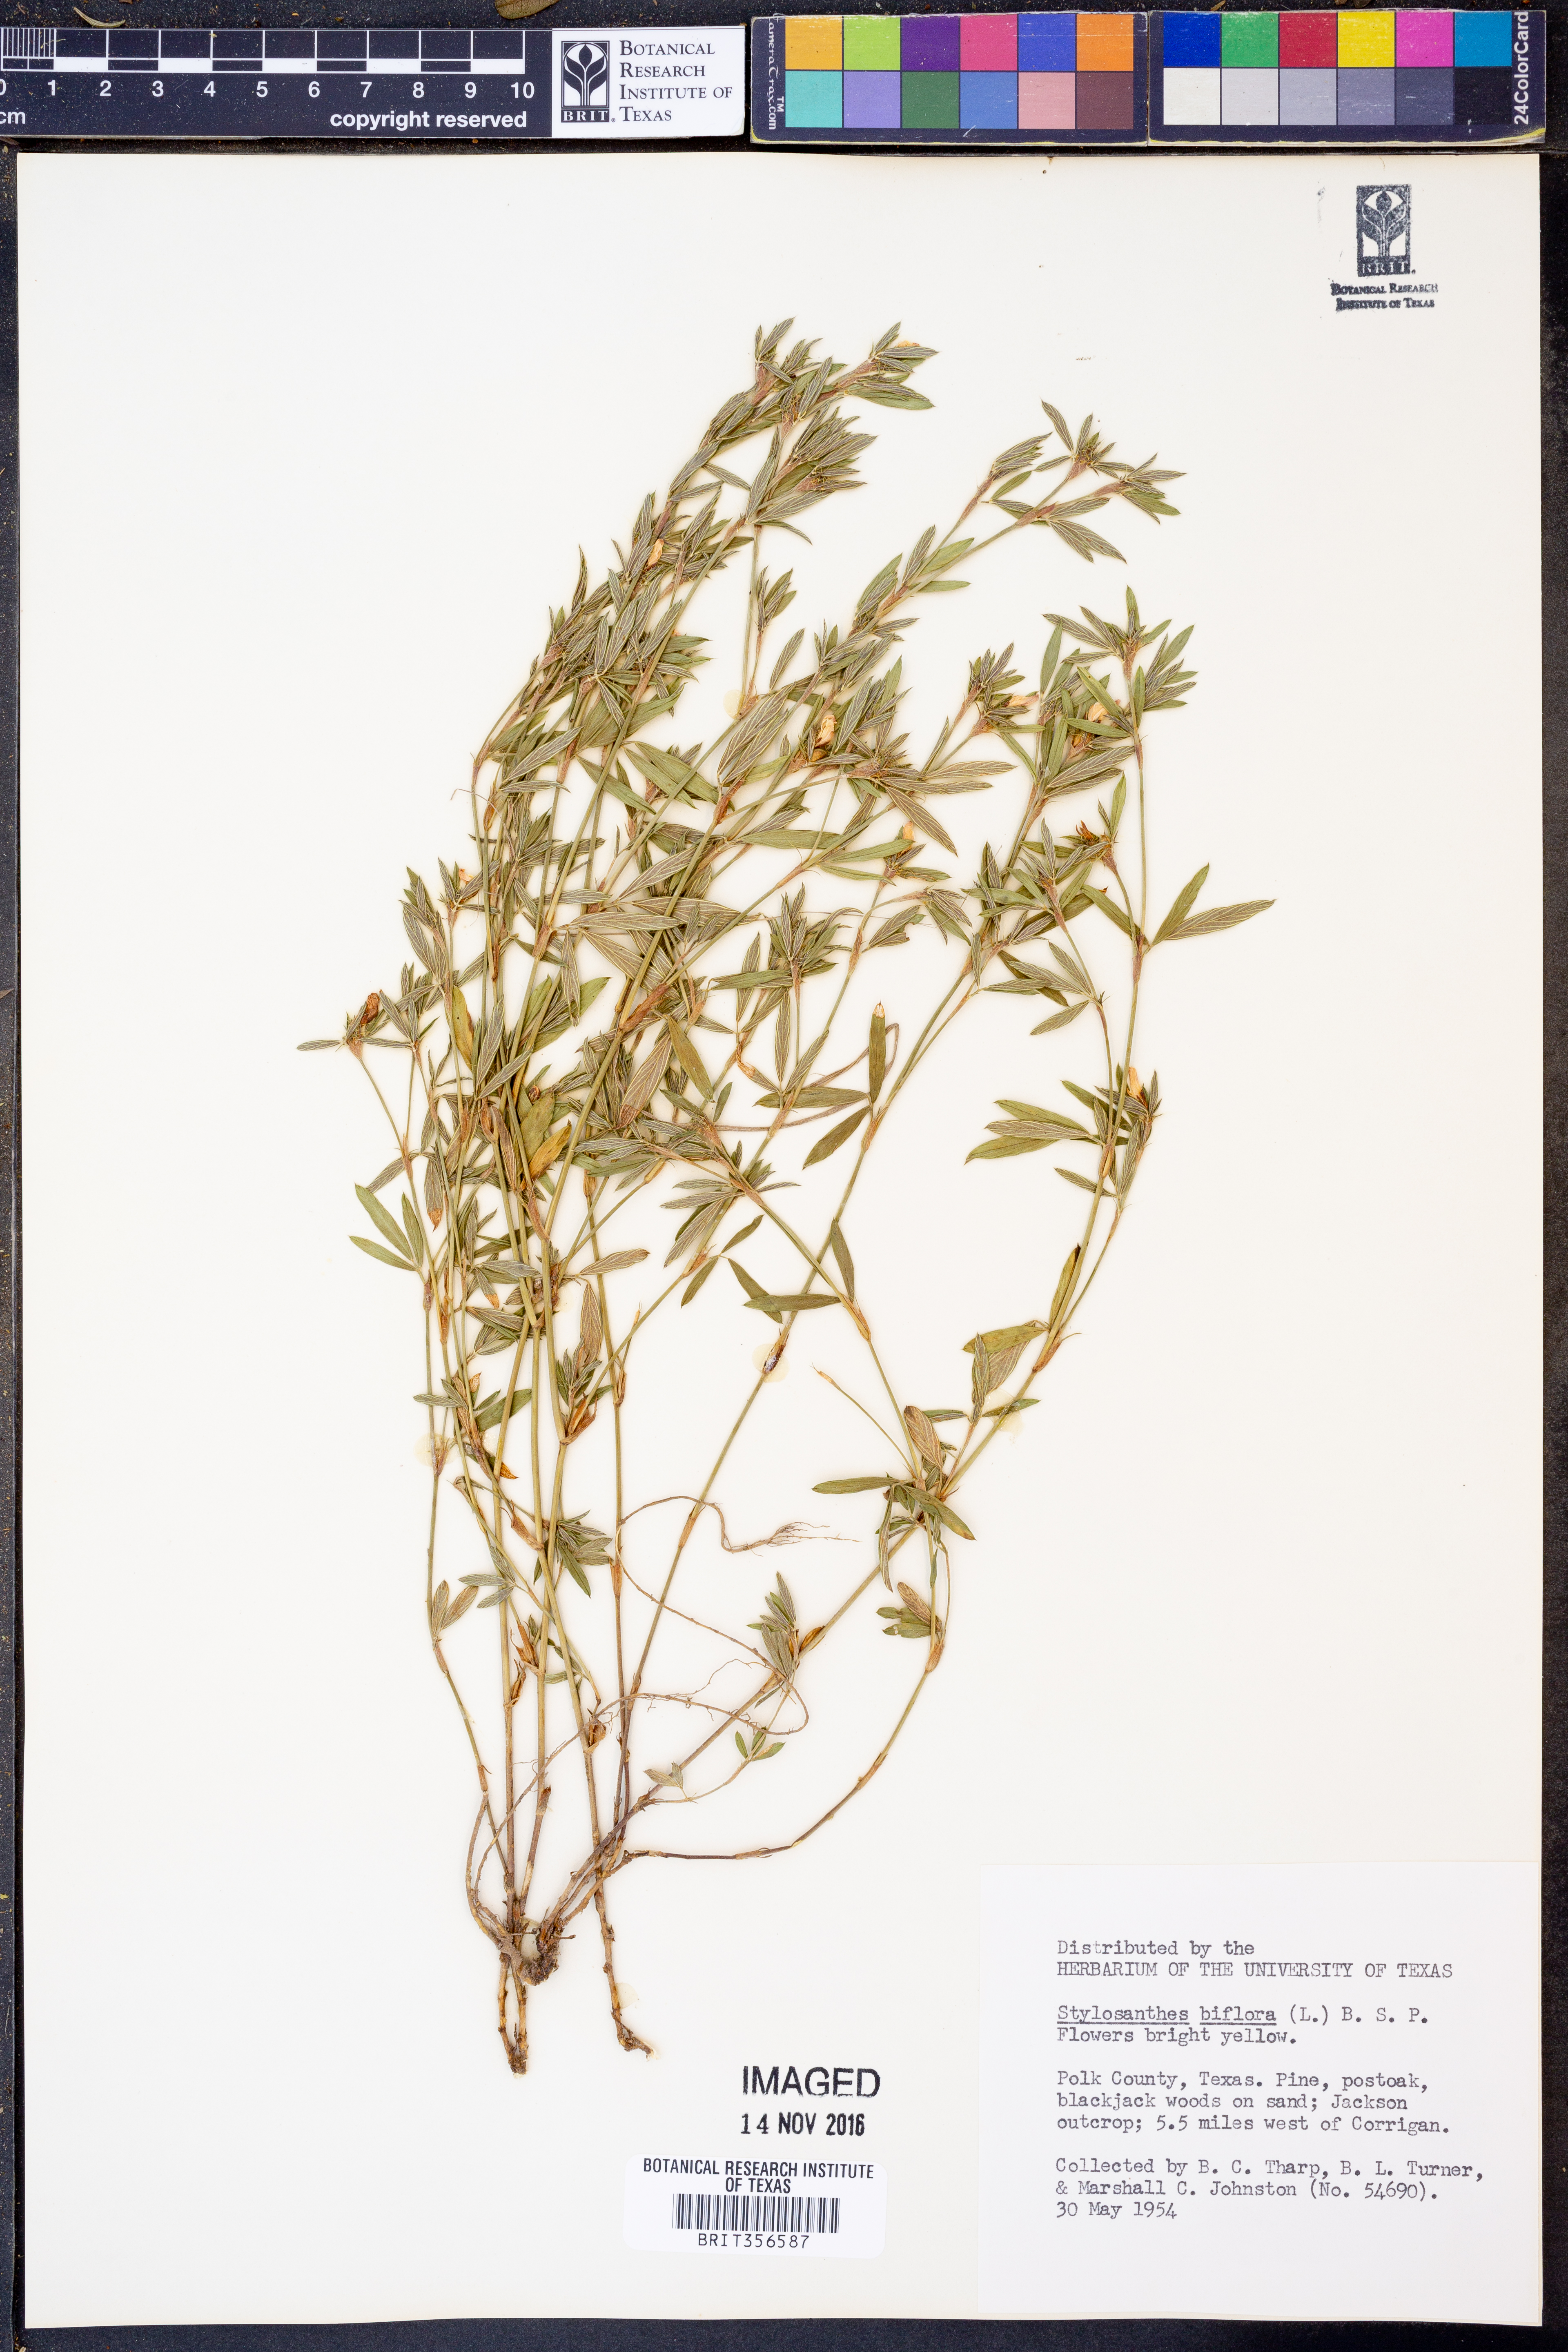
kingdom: Plantae
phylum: Tracheophyta
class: Magnoliopsida
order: Fabales
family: Fabaceae
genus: Stylosanthes
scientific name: Stylosanthes biflora
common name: Two-flower pencil-flower
